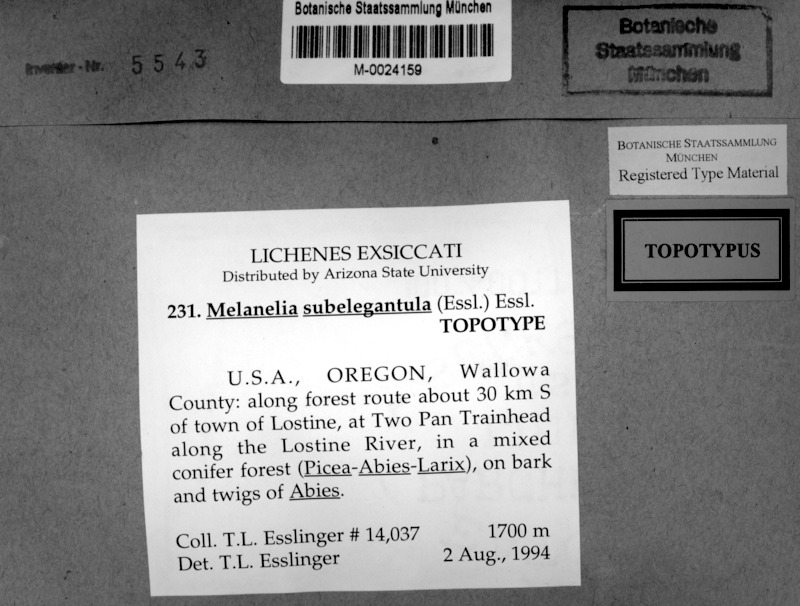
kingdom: Fungi
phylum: Ascomycota
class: Lecanoromycetes
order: Lecanorales
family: Parmeliaceae
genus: Melanohalea
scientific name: Melanohalea subelegantula
